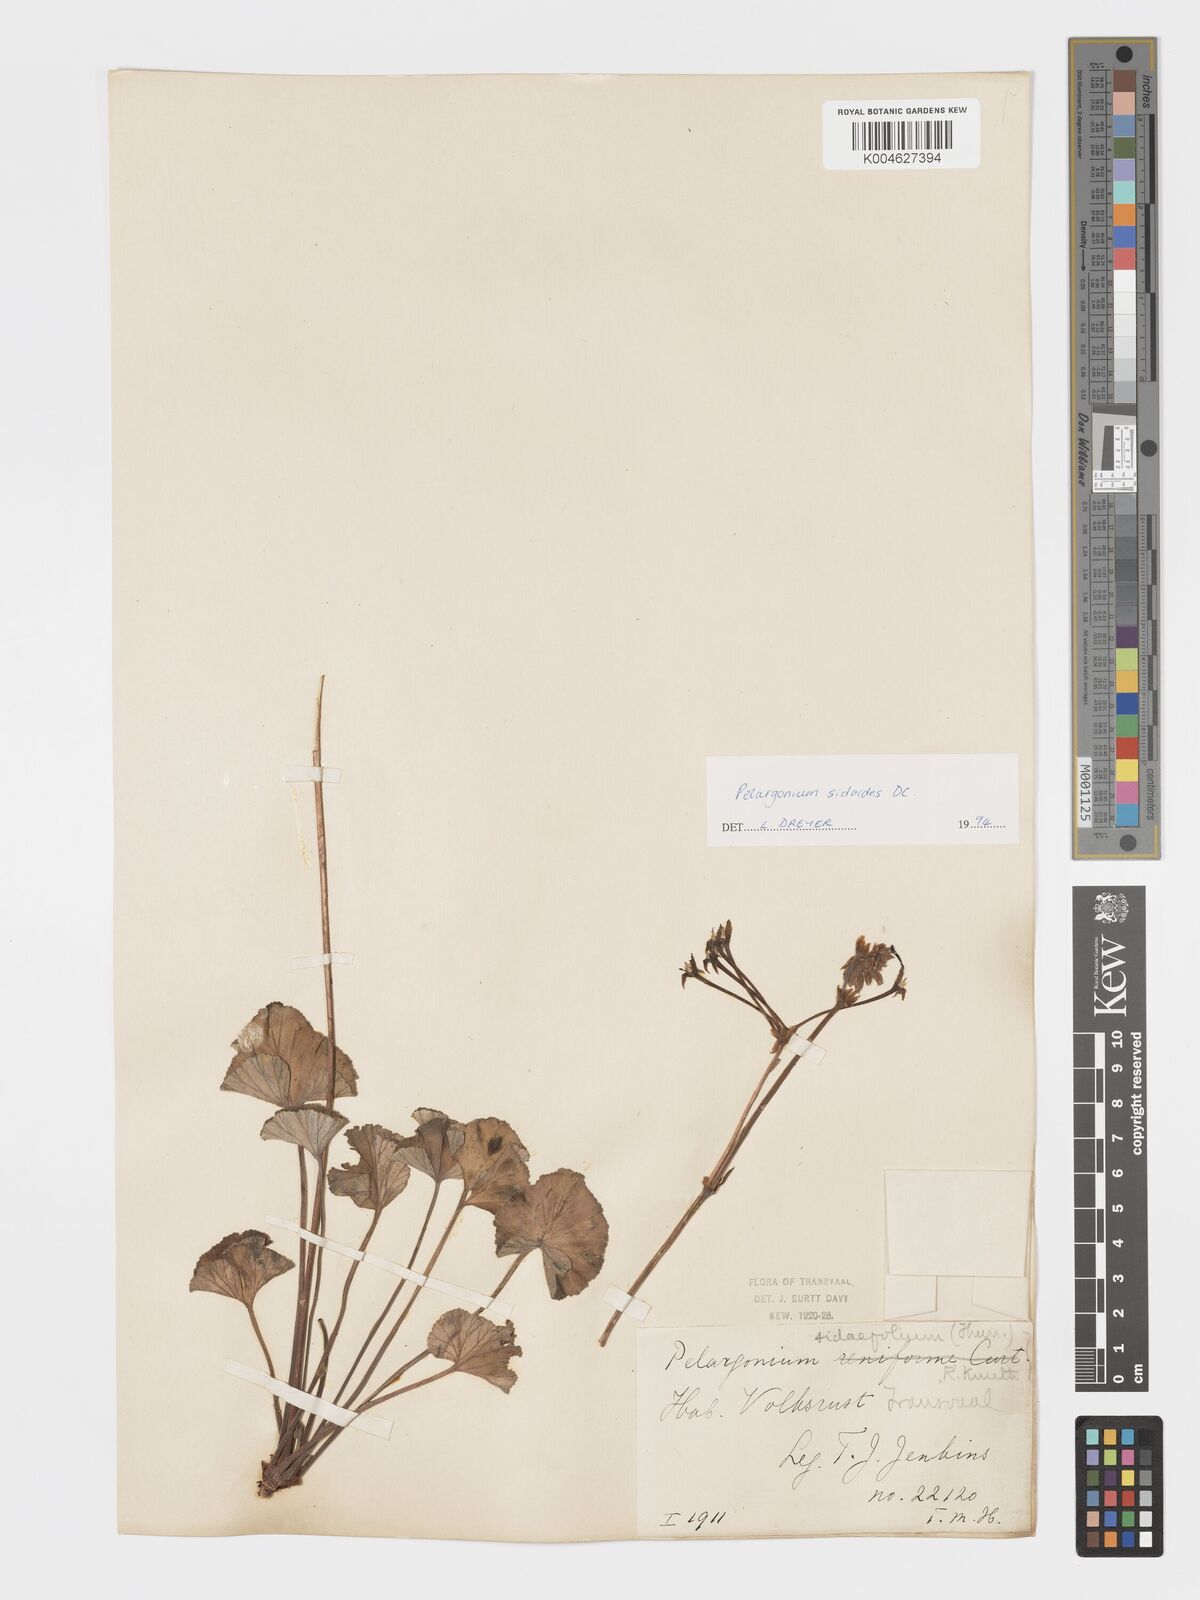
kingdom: Plantae
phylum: Tracheophyta
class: Magnoliopsida
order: Geraniales
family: Geraniaceae
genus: Pelargonium
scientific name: Pelargonium sidoides
